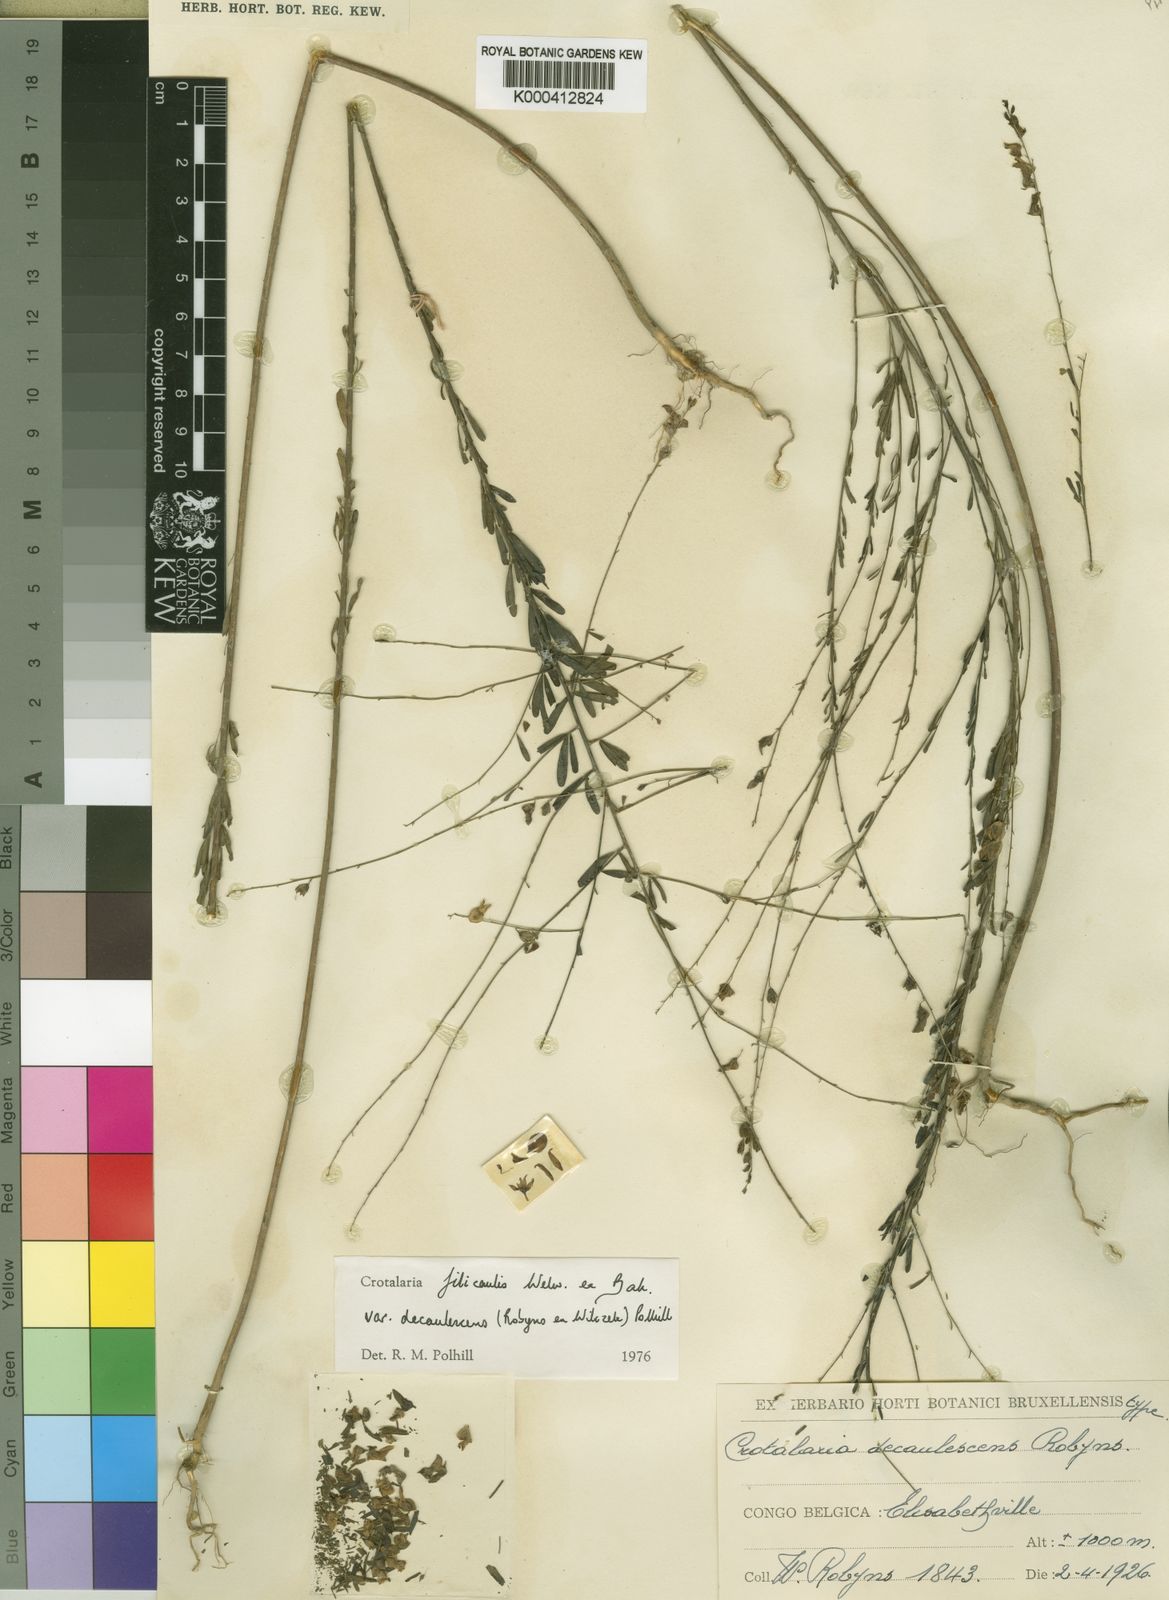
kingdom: Plantae
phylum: Tracheophyta
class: Magnoliopsida
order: Fabales
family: Fabaceae
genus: Crotalaria
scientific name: Crotalaria filicaulis
